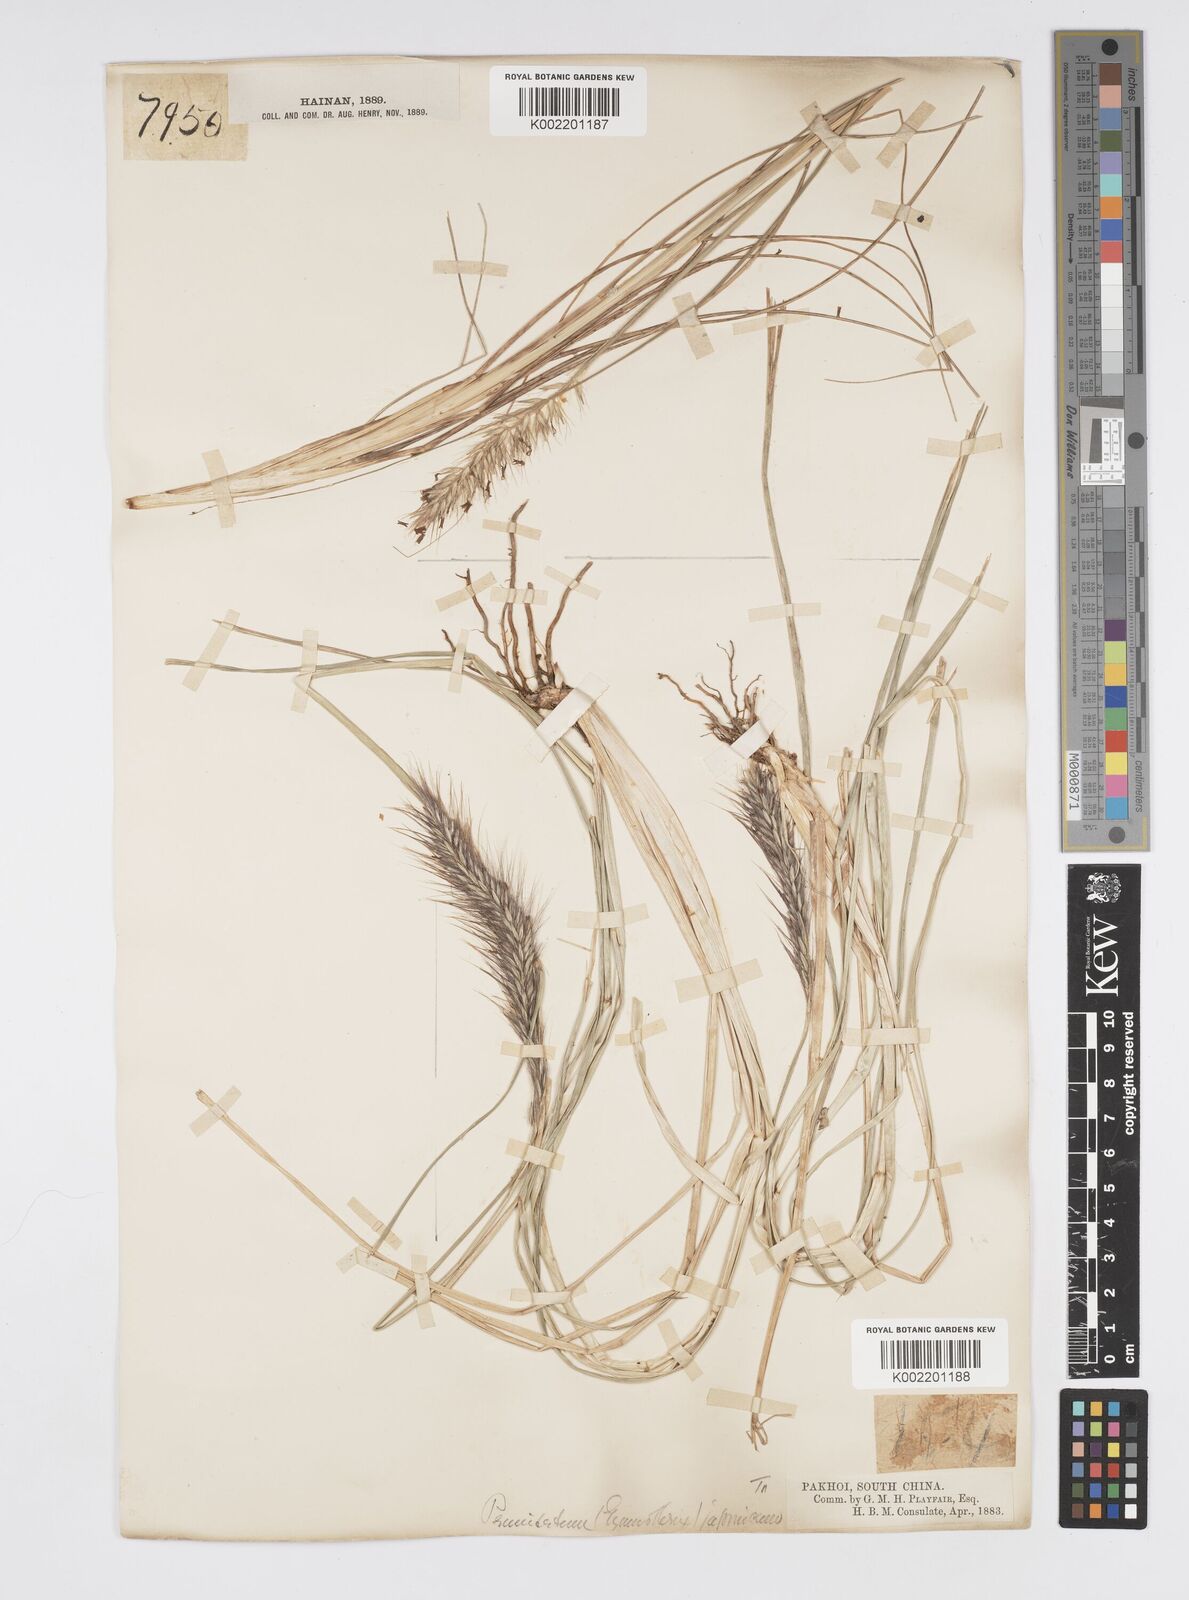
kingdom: Plantae
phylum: Tracheophyta
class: Liliopsida
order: Poales
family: Poaceae
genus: Cenchrus
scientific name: Cenchrus alopecuroides
